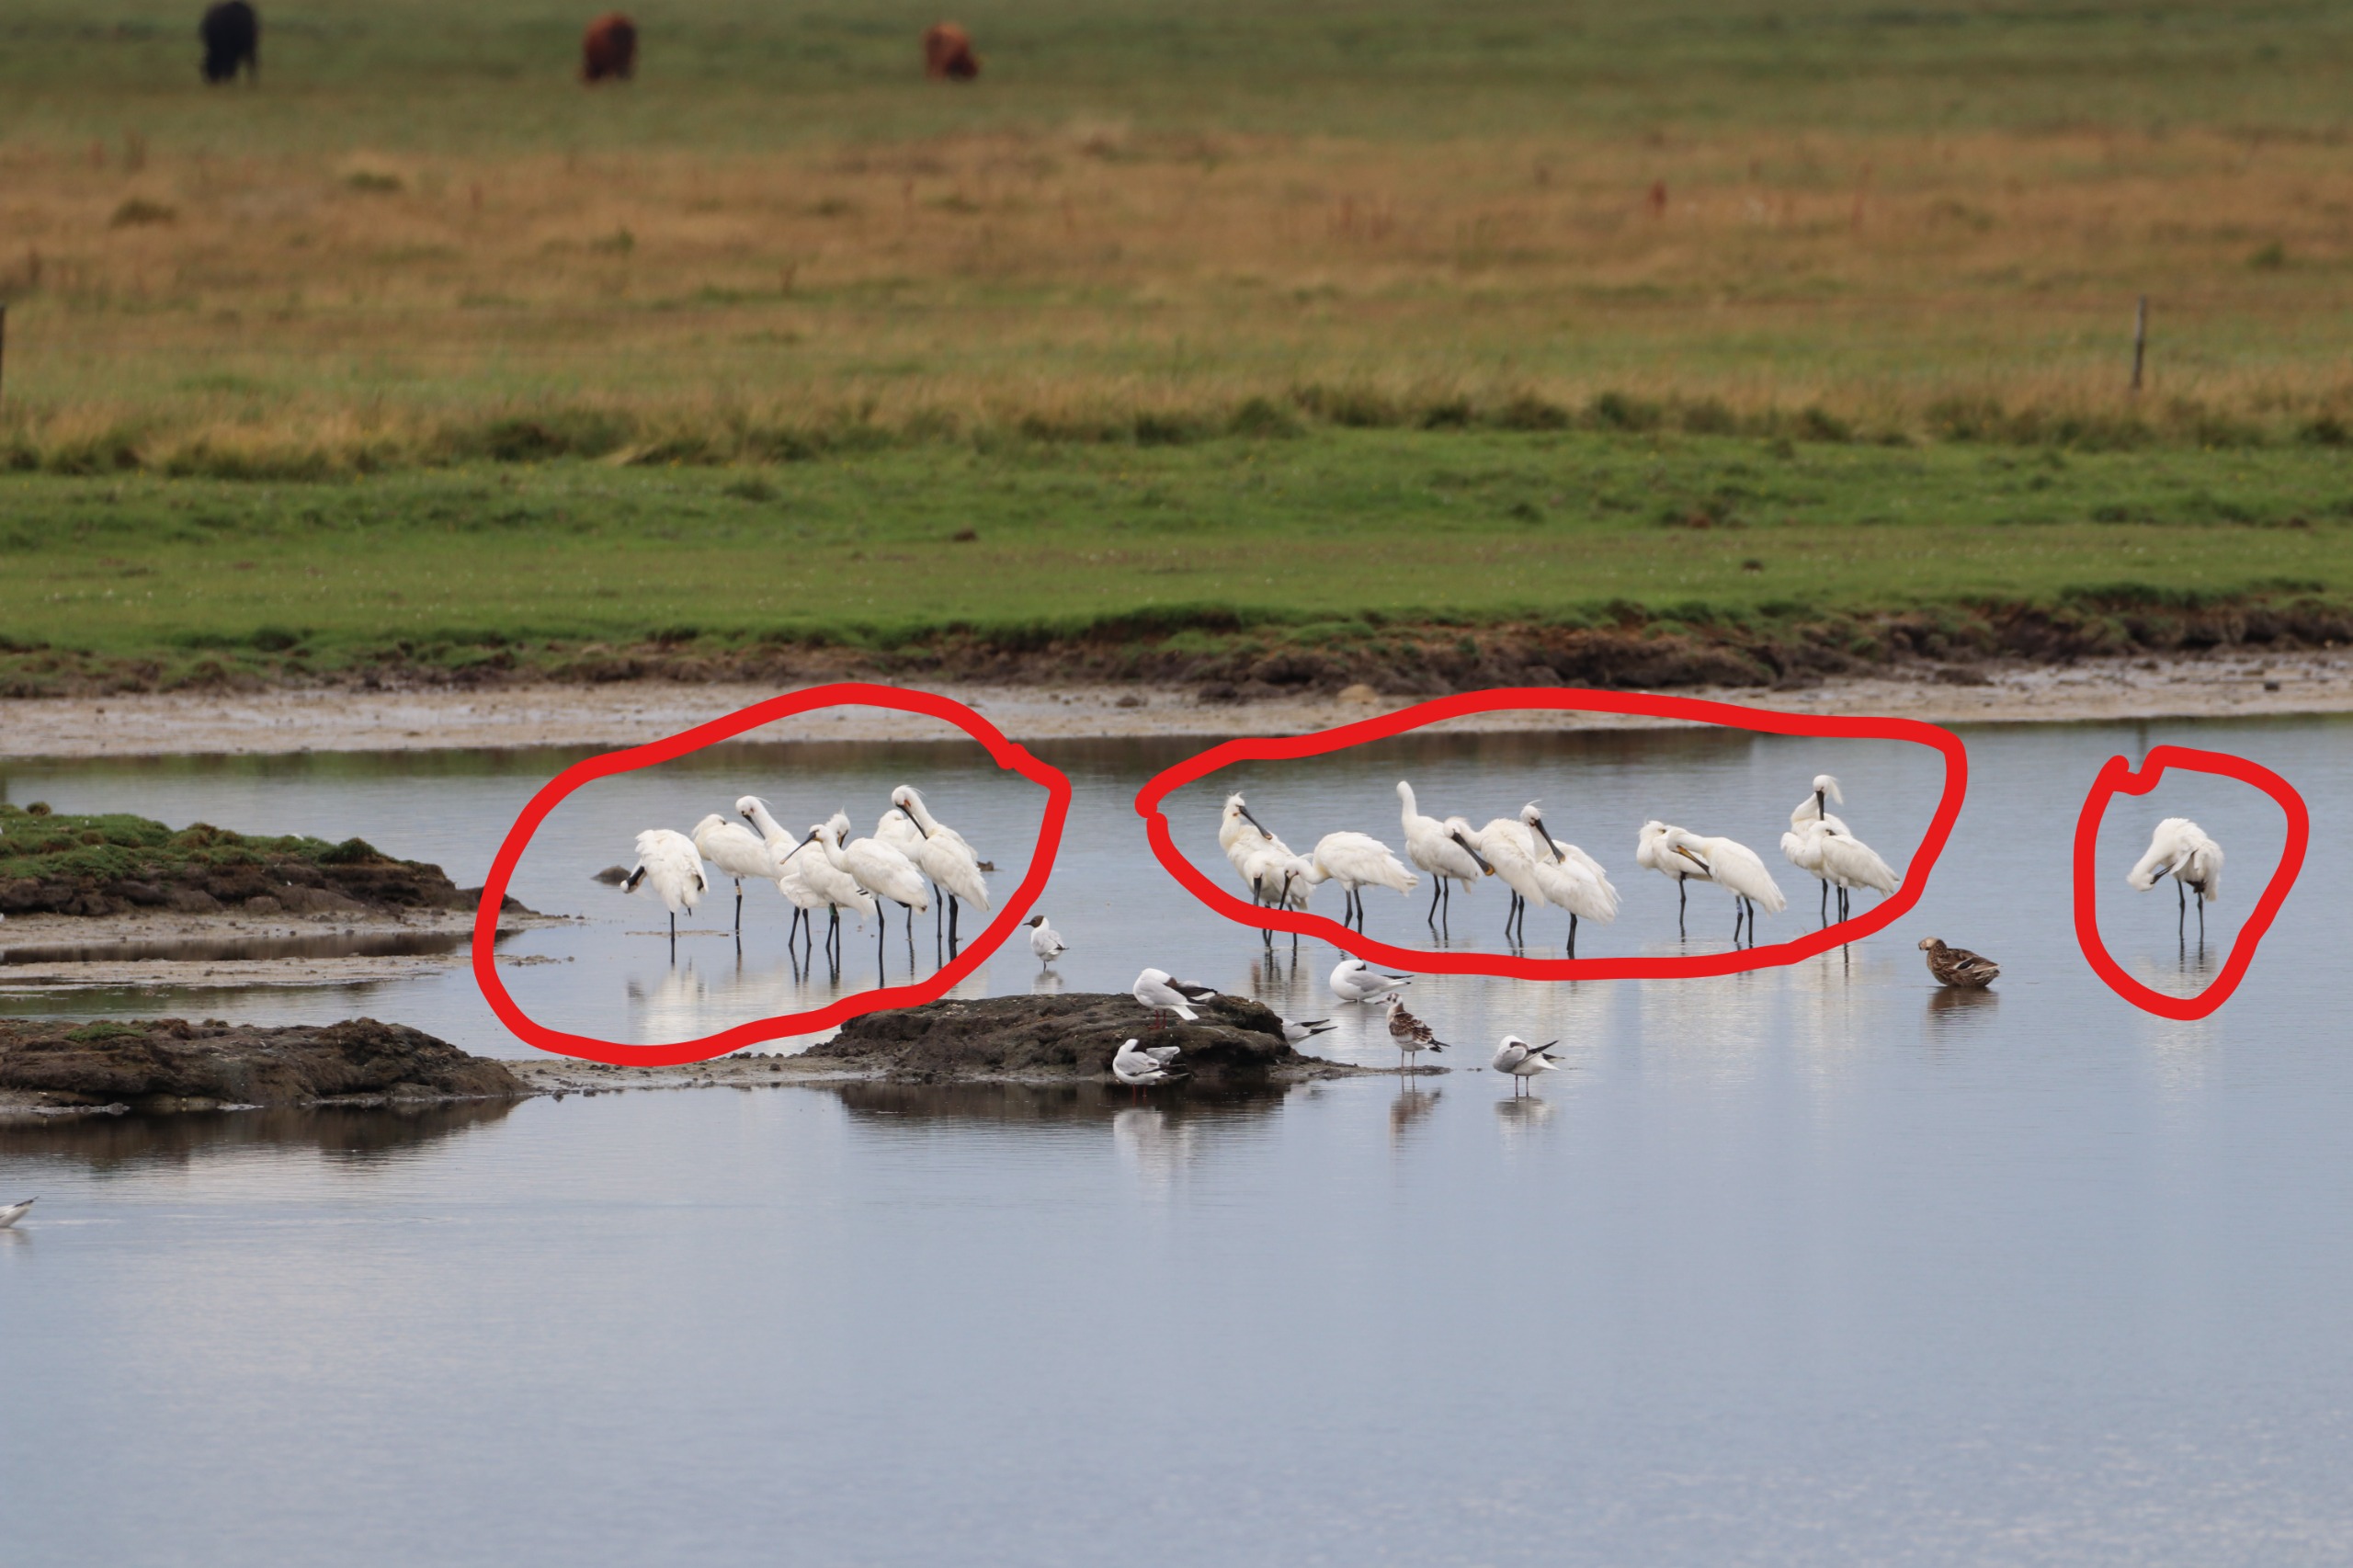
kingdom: Animalia
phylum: Chordata
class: Aves
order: Pelecaniformes
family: Threskiornithidae
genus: Platalea
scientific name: Platalea leucorodia
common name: Skestork
